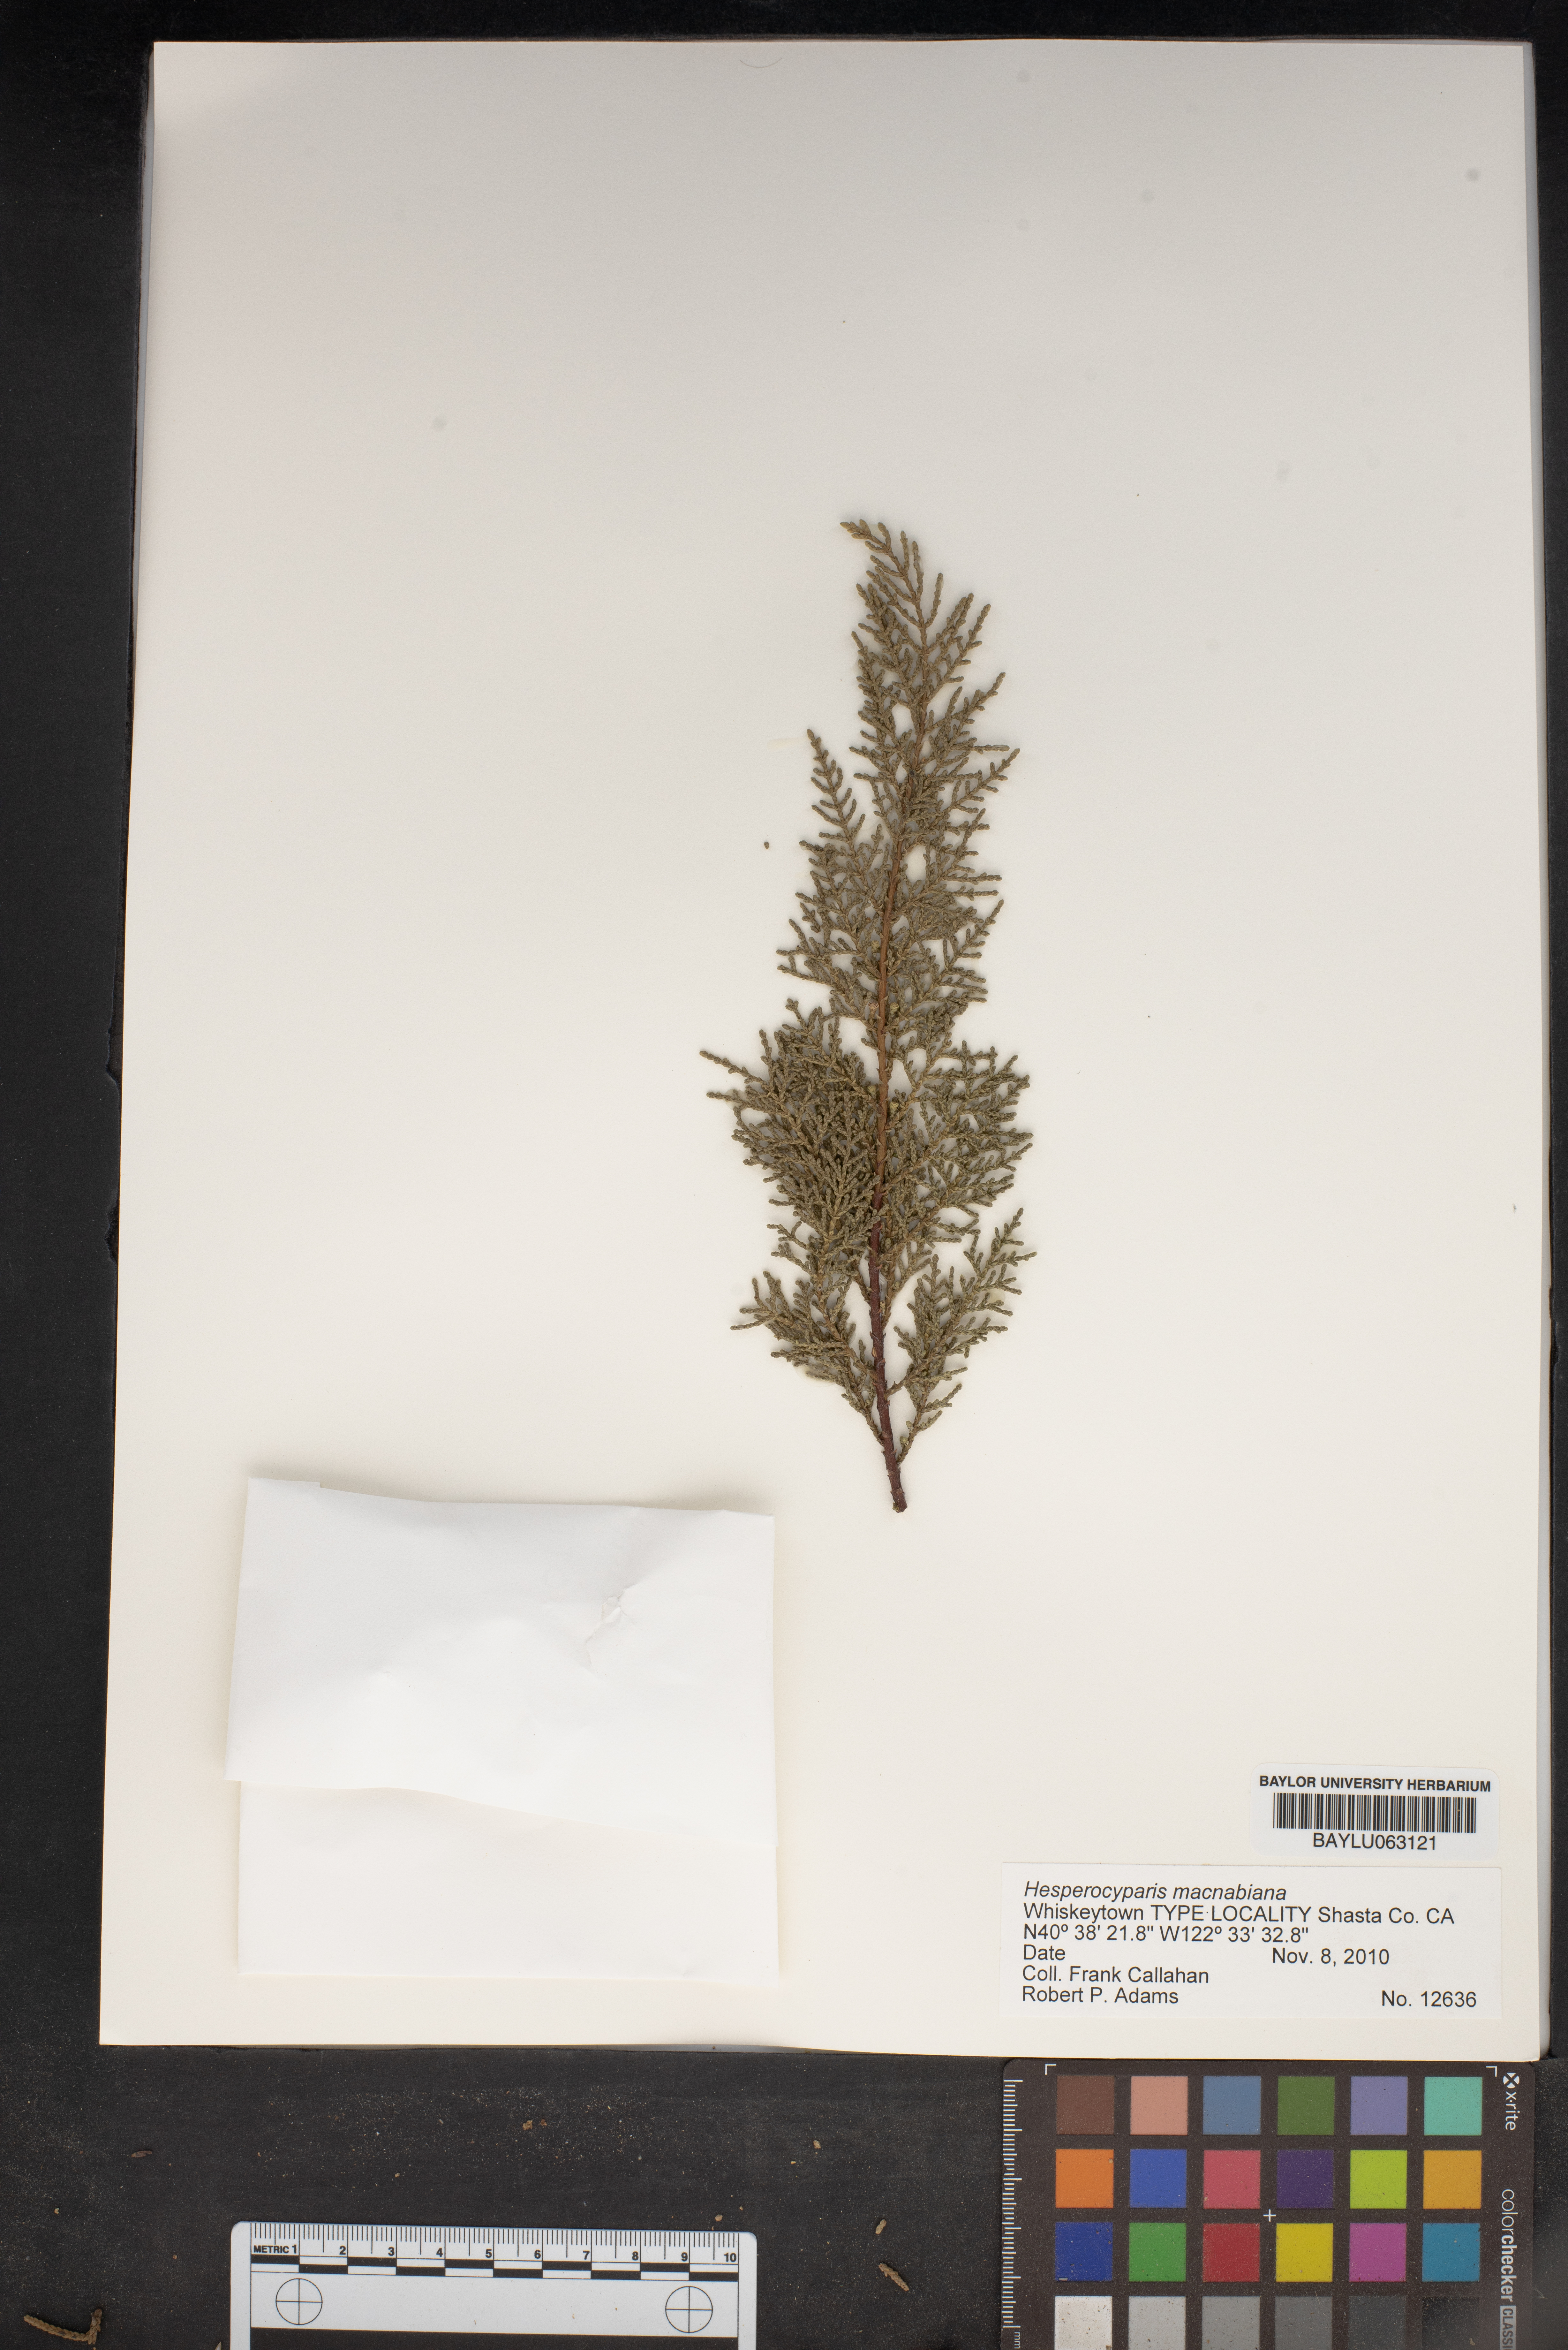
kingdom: Plantae
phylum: Tracheophyta
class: Pinopsida
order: Pinales
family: Cupressaceae
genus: Cupressus
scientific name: Cupressus macnabiana bis
